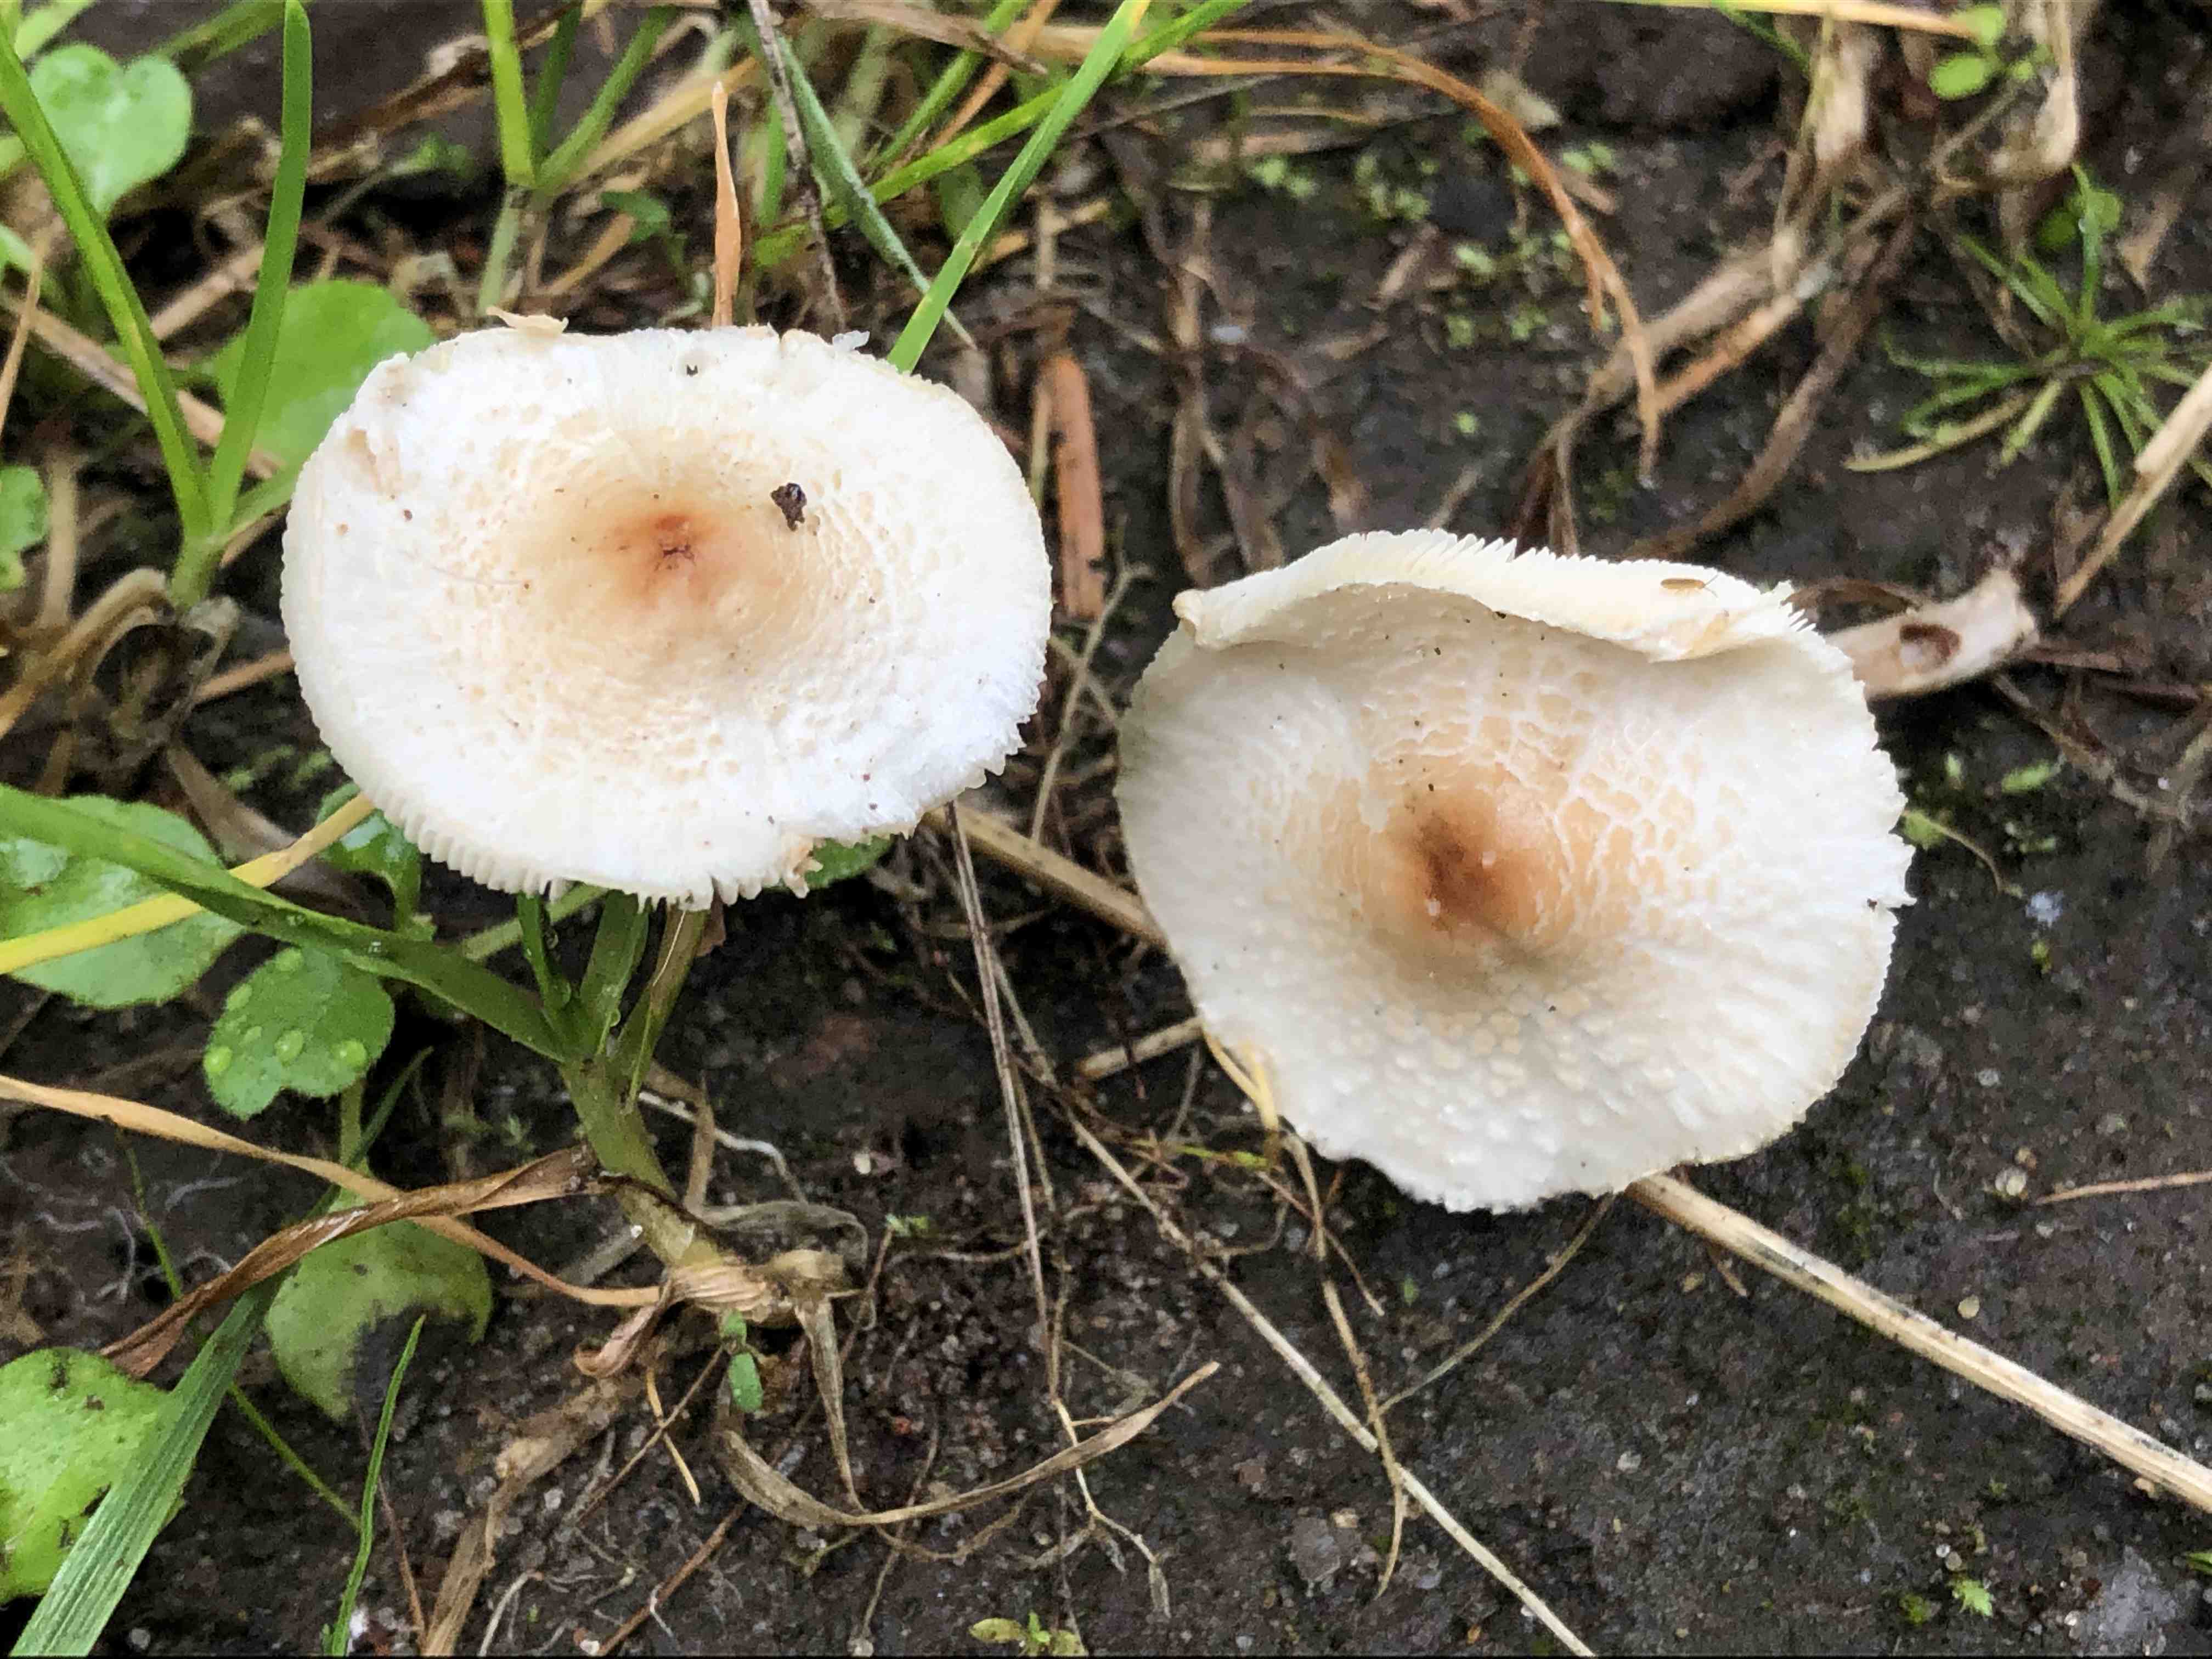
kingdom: Fungi
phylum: Basidiomycota
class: Agaricomycetes
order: Agaricales
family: Agaricaceae
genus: Lepiota
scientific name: Lepiota cristata
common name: stinkende parasolhat
